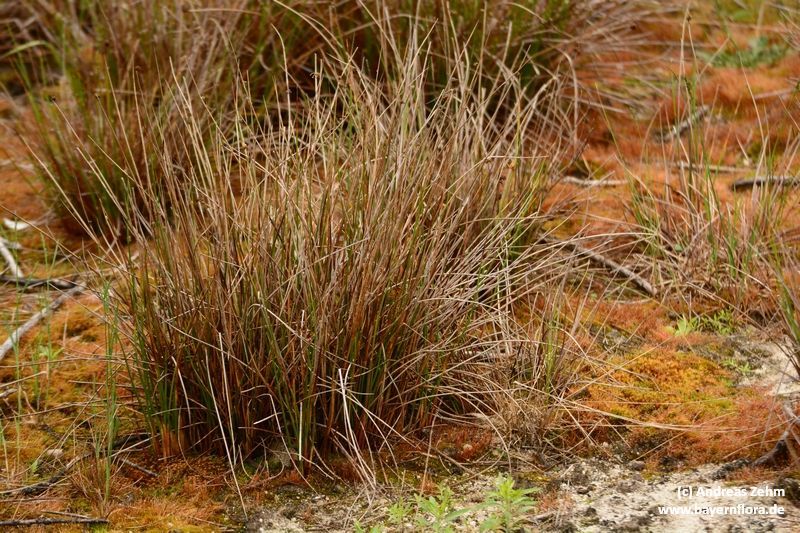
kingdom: Plantae
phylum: Tracheophyta
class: Liliopsida
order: Poales
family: Juncaceae
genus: Juncus
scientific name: Juncus conglomeratus
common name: Compact rush
